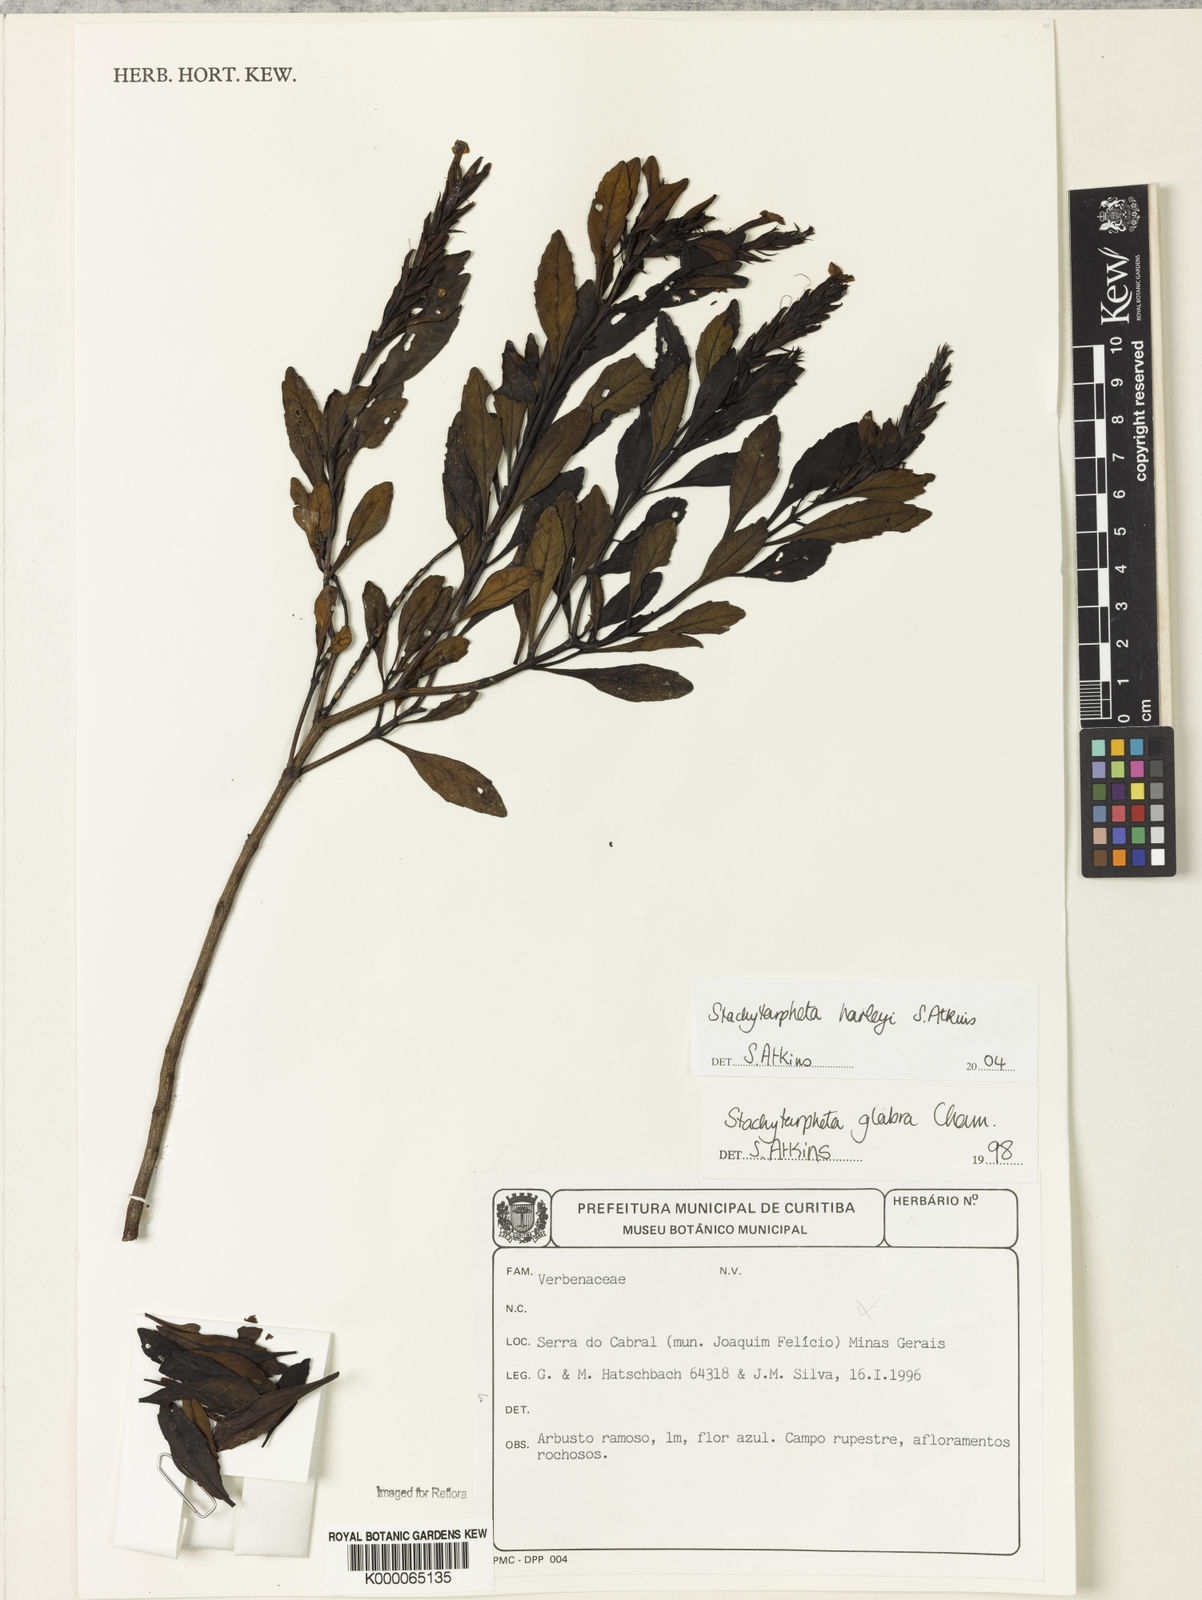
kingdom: Plantae
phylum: Tracheophyta
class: Magnoliopsida
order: Lamiales
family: Verbenaceae
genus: Stachytarpheta
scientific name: Stachytarpheta glabra
